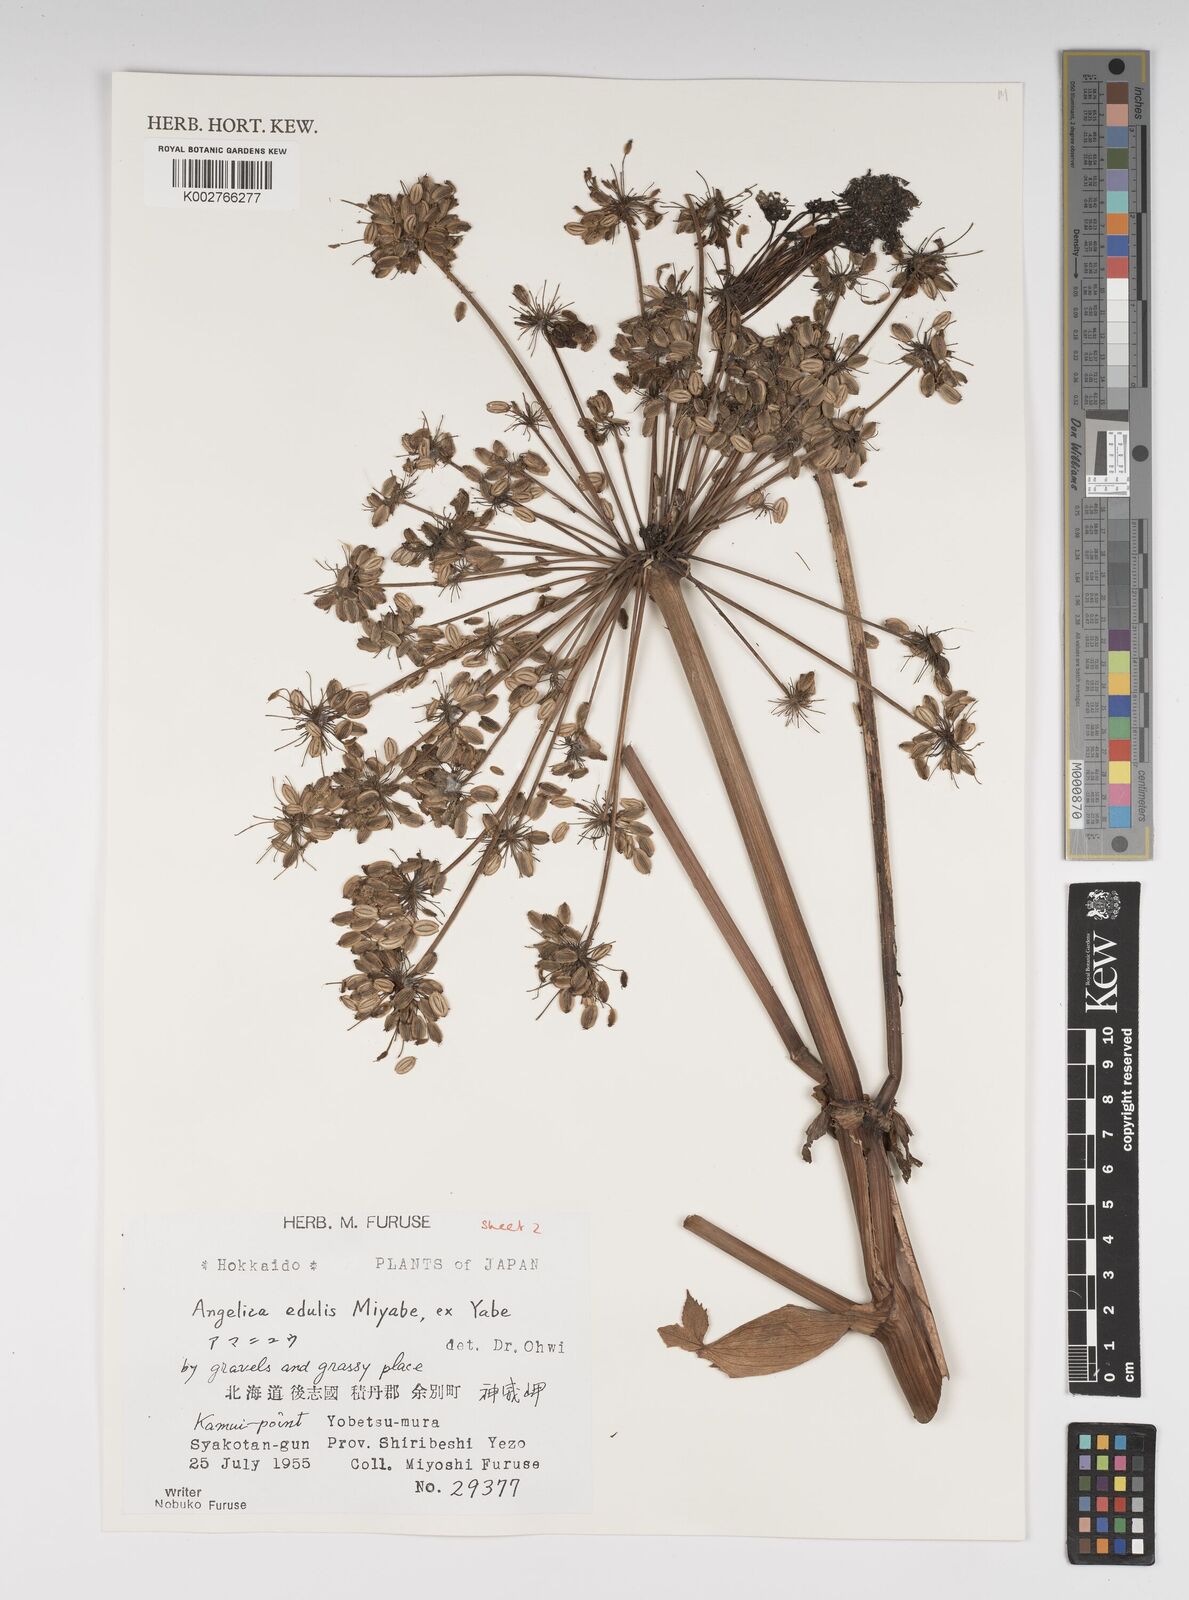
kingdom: Plantae
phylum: Tracheophyta
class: Magnoliopsida
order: Apiales
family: Apiaceae
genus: Angelica
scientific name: Angelica edulis
